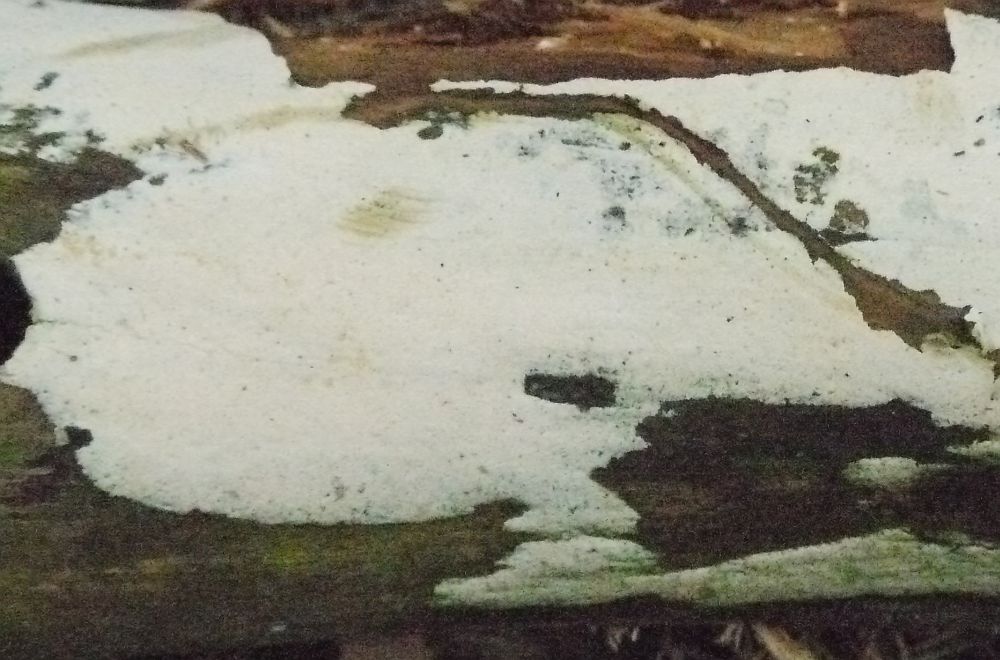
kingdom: Fungi
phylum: Basidiomycota
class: Agaricomycetes
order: Hymenochaetales
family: Rickenellaceae
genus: Sidera
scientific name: Sidera vulgaris
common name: fin flødeporesvamp
